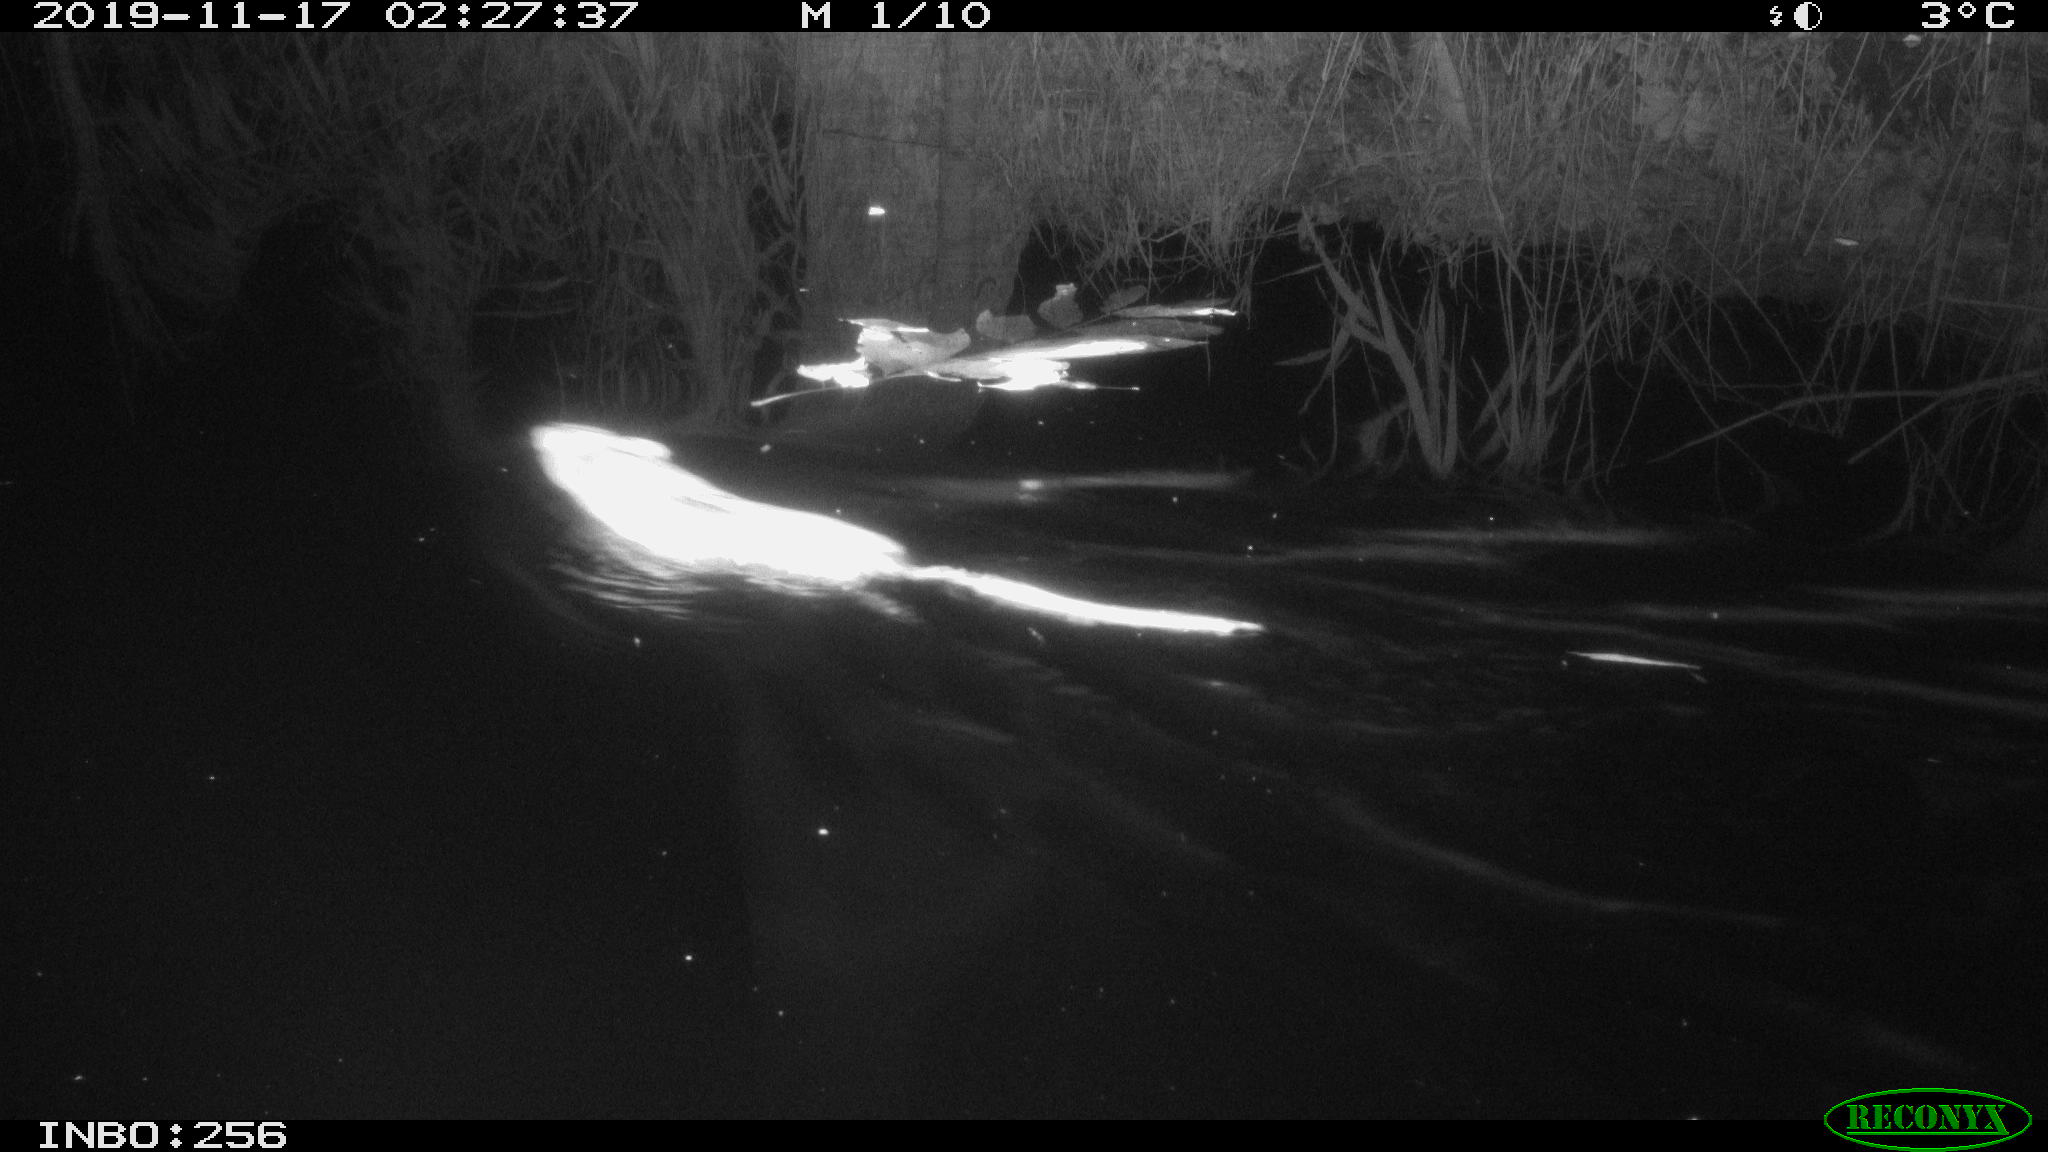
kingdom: Animalia
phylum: Chordata
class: Mammalia
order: Rodentia
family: Cricetidae
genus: Ondatra
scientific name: Ondatra zibethicus
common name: Muskrat
